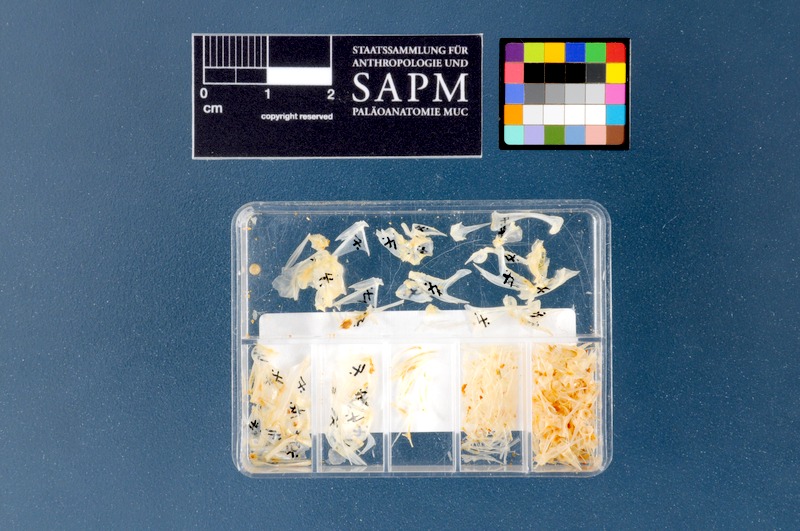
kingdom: Animalia
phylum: Chordata
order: Perciformes
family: Cepolidae
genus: Cepola
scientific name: Cepola macrophthalma
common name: Red bandfish
